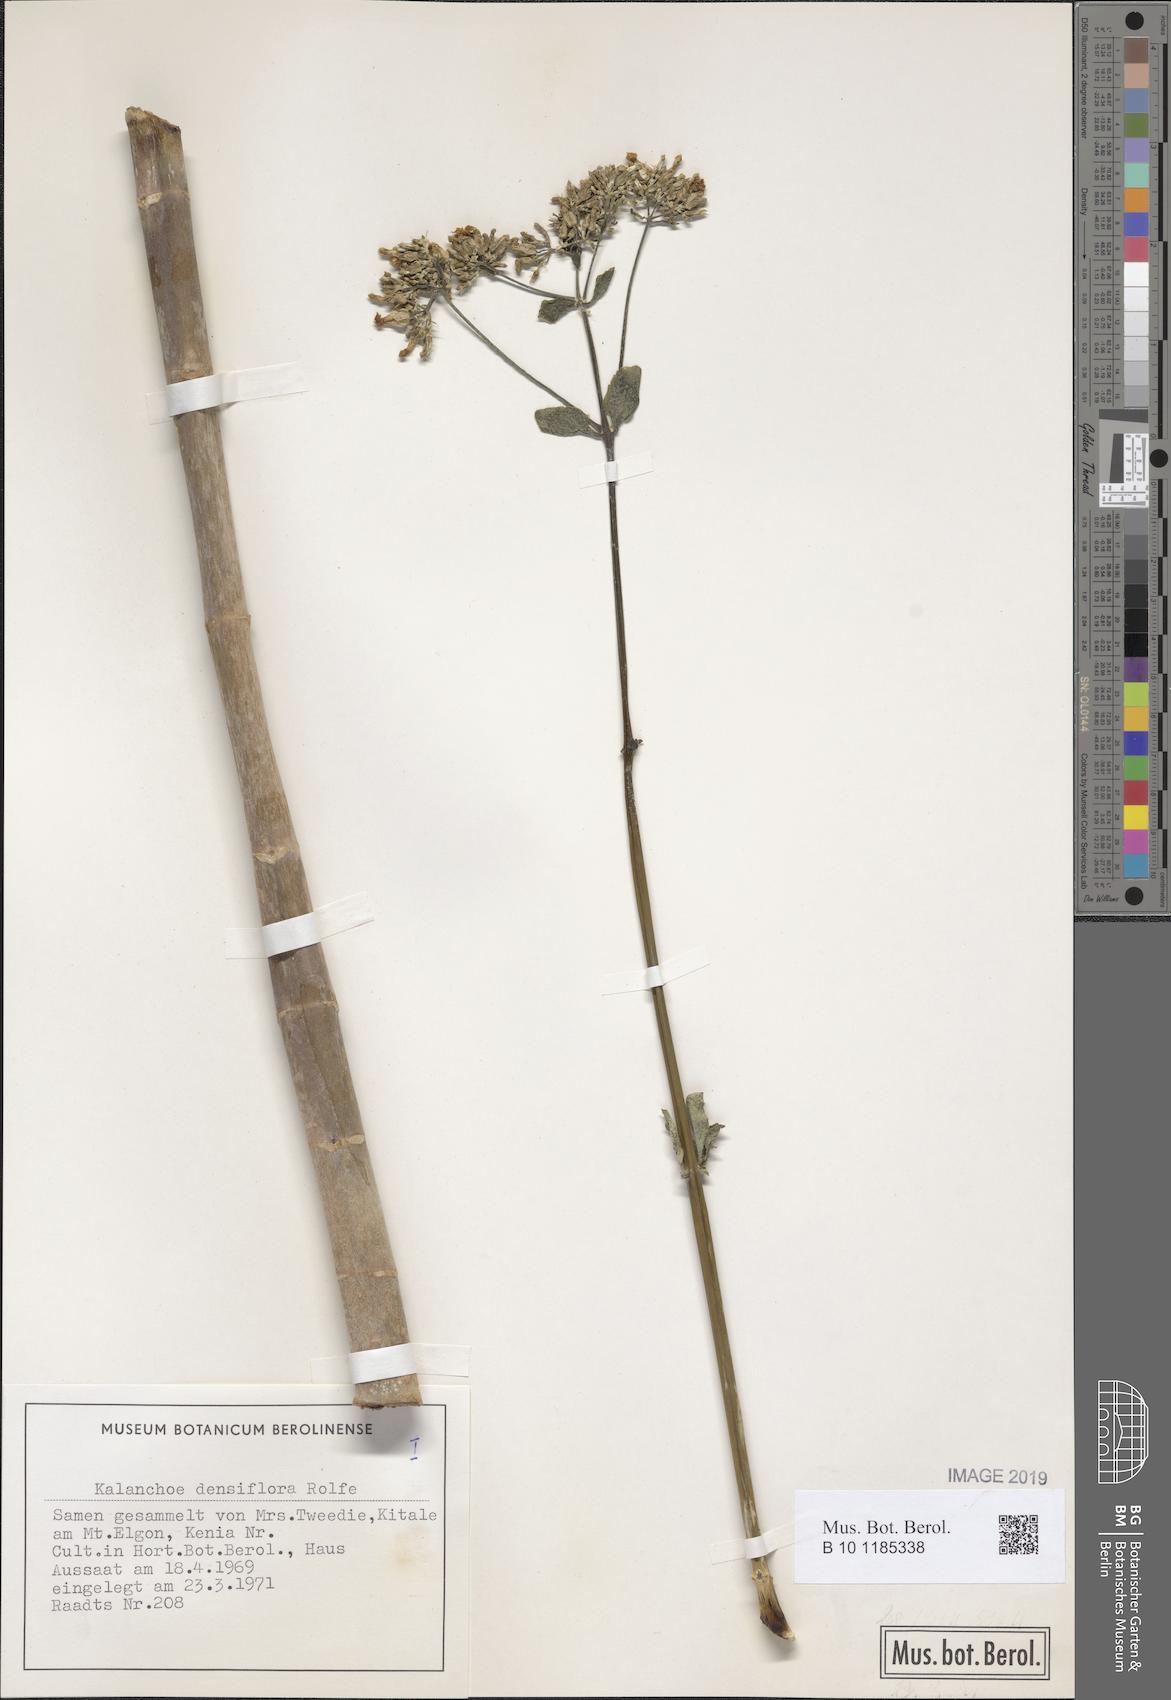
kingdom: Plantae
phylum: Tracheophyta
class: Magnoliopsida
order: Saxifragales
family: Crassulaceae
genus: Kalanchoe
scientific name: Kalanchoe densiflora
